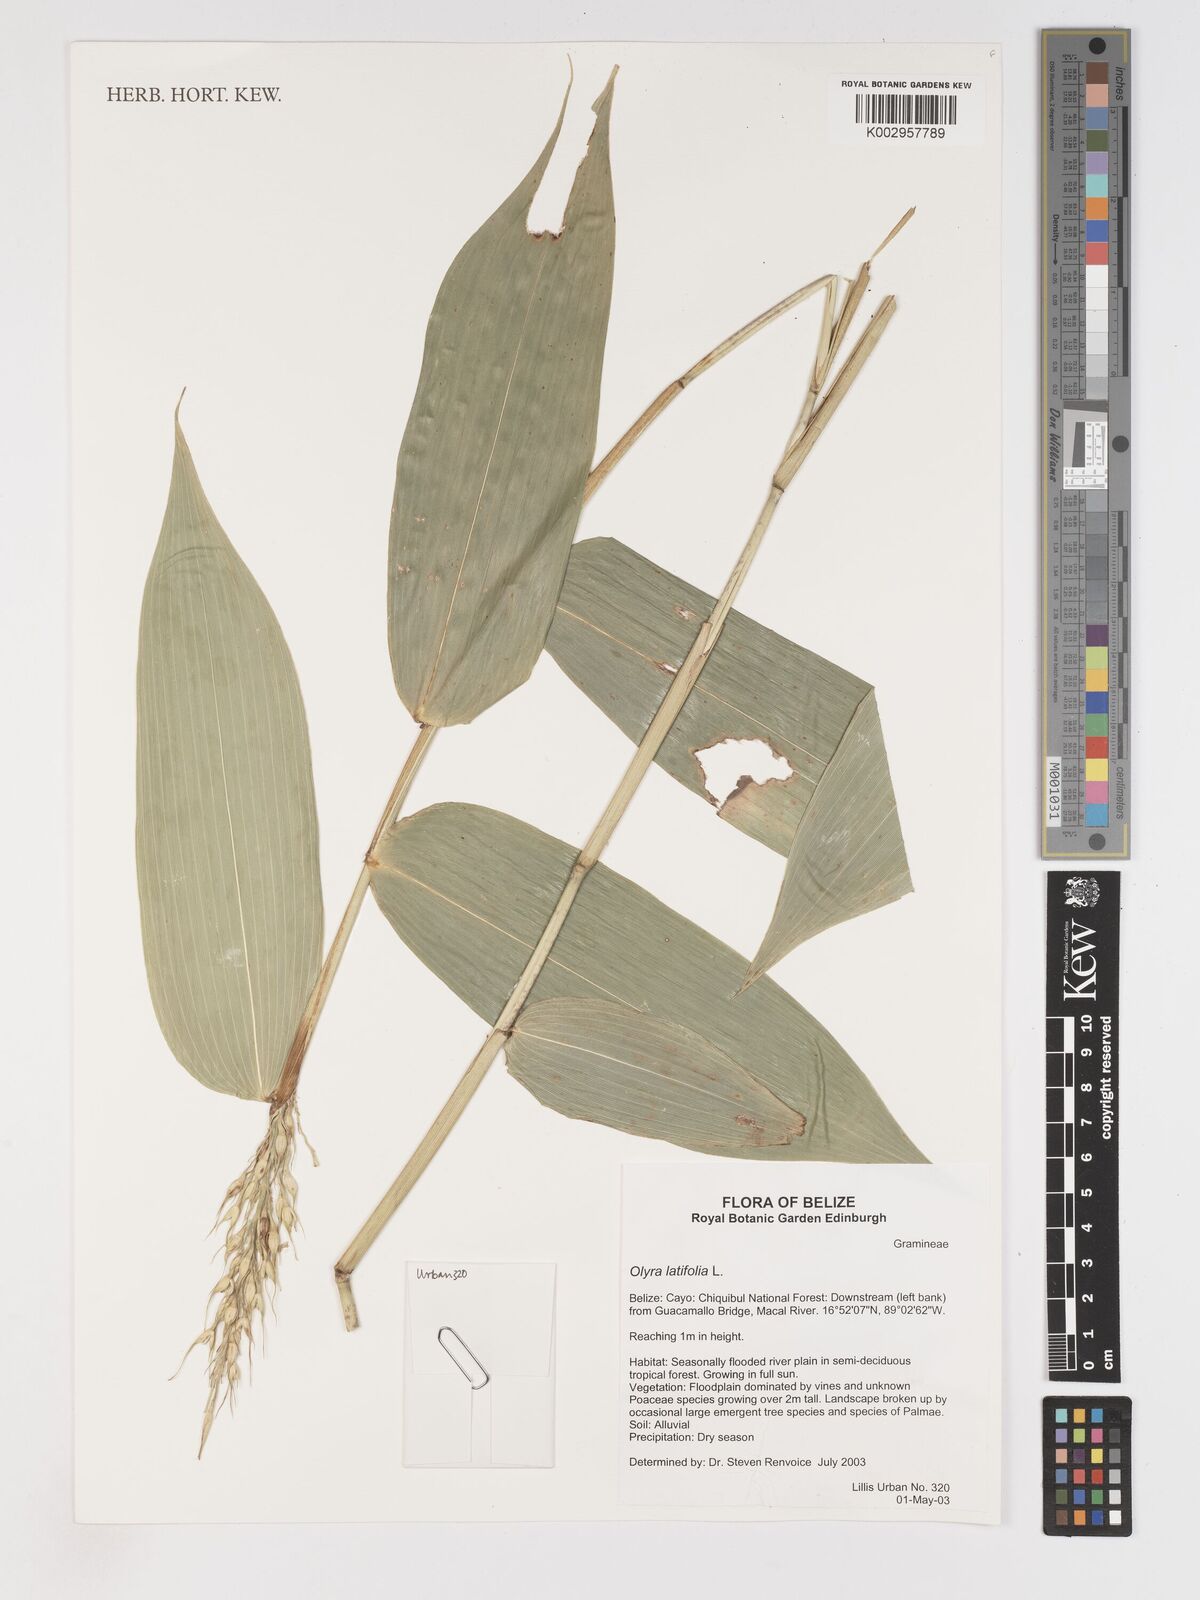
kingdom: Plantae
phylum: Tracheophyta
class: Liliopsida
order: Poales
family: Poaceae
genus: Olyra
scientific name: Olyra latifolia
